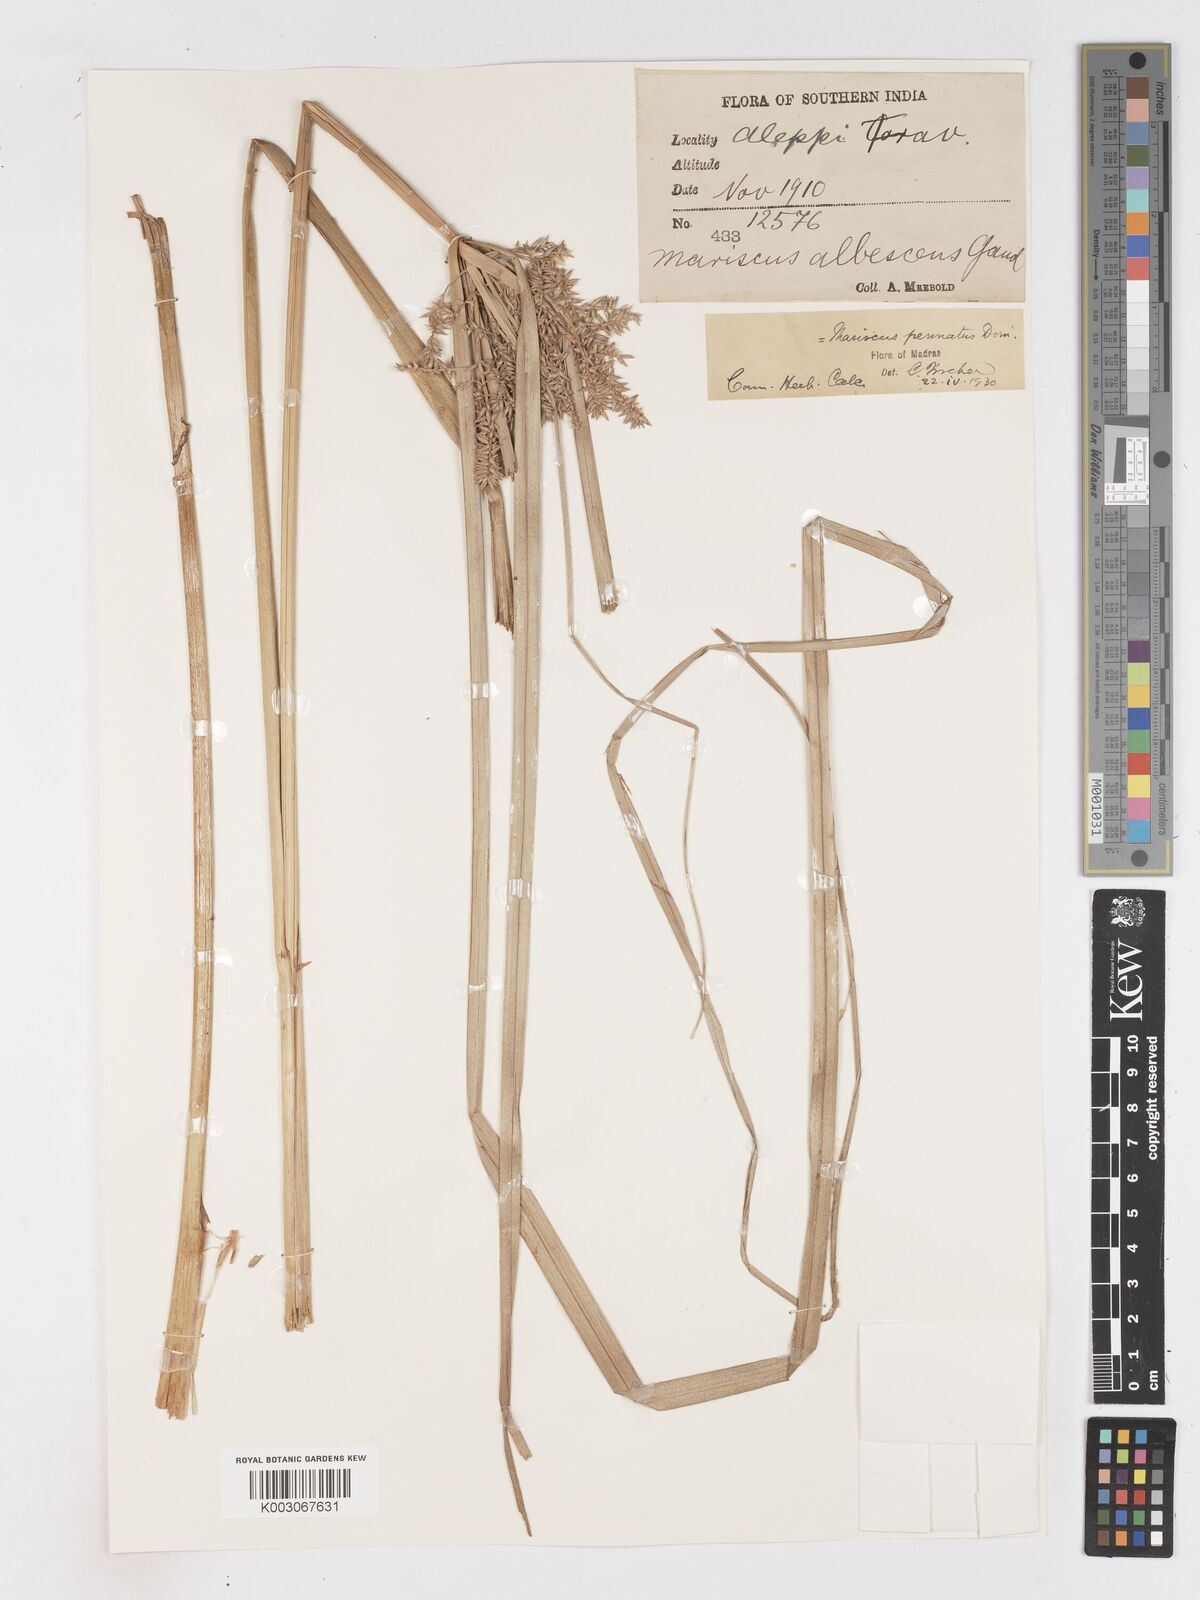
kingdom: Plantae
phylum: Tracheophyta
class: Liliopsida
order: Poales
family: Cyperaceae
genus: Cyperus
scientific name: Cyperus javanicus
